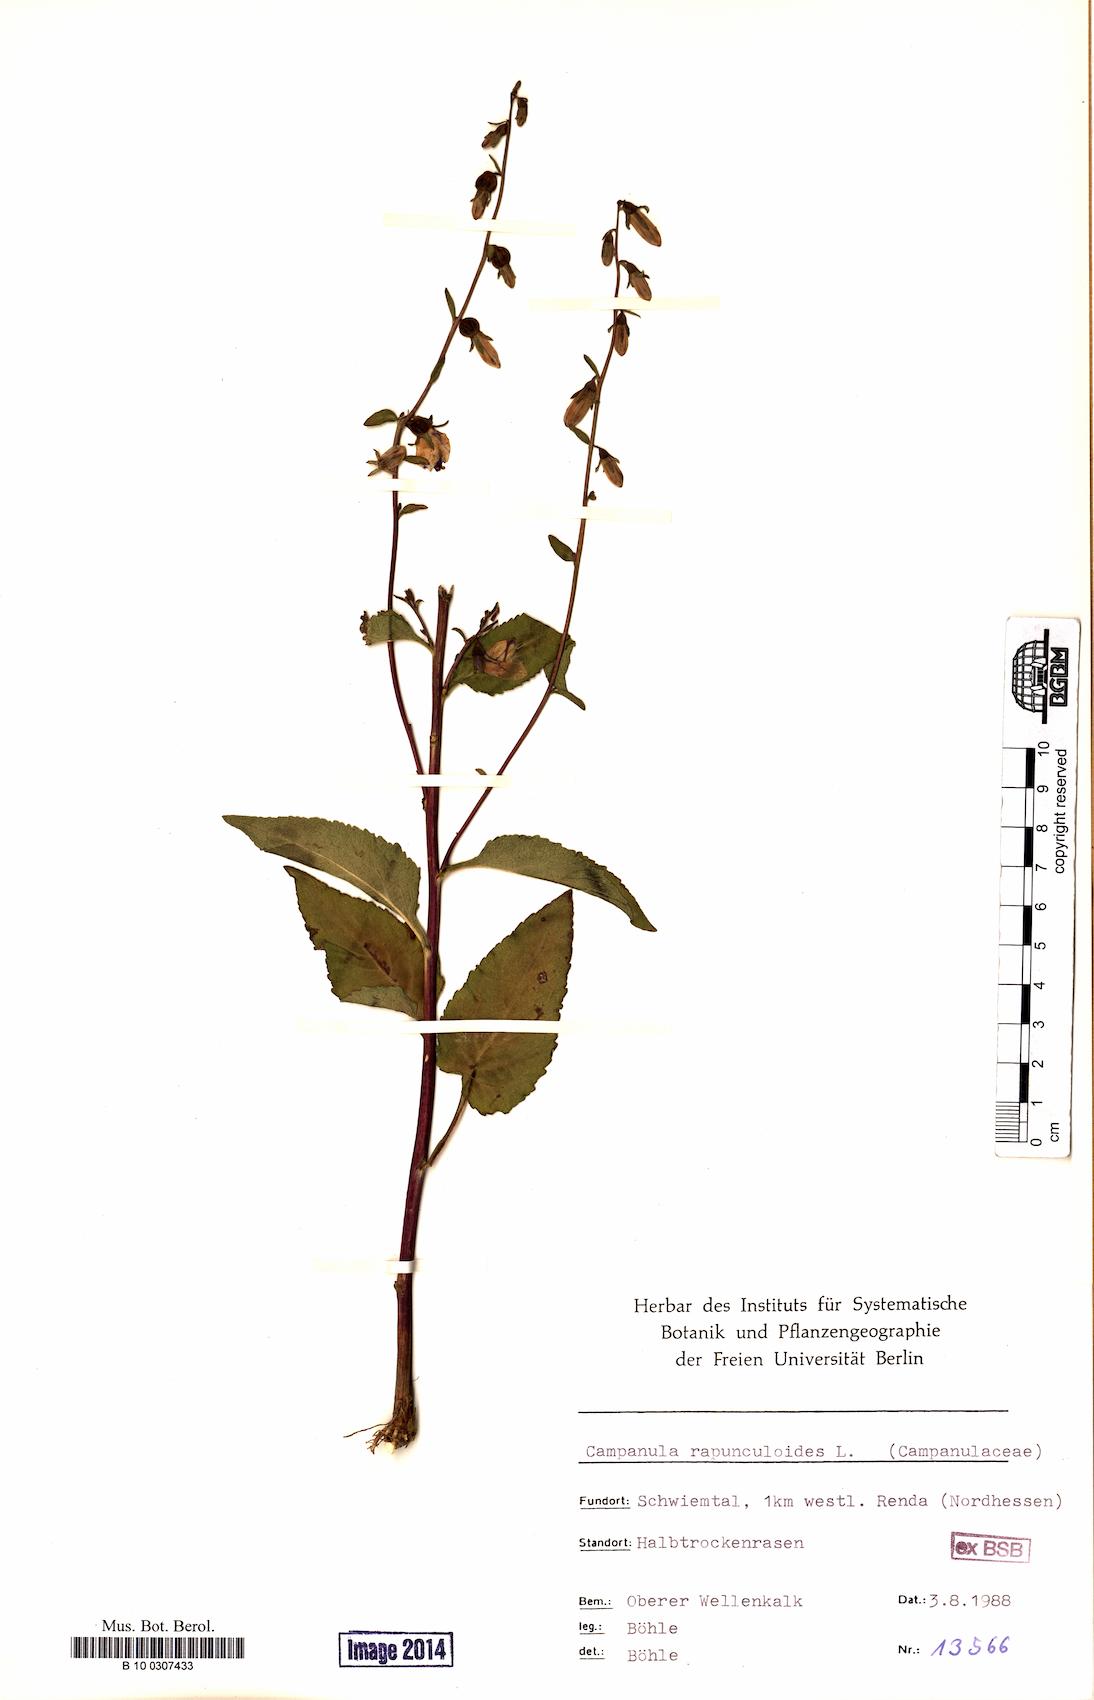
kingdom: Plantae
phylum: Tracheophyta
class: Magnoliopsida
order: Asterales
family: Campanulaceae
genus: Campanula
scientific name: Campanula rapunculoides
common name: Creeping bellflower
